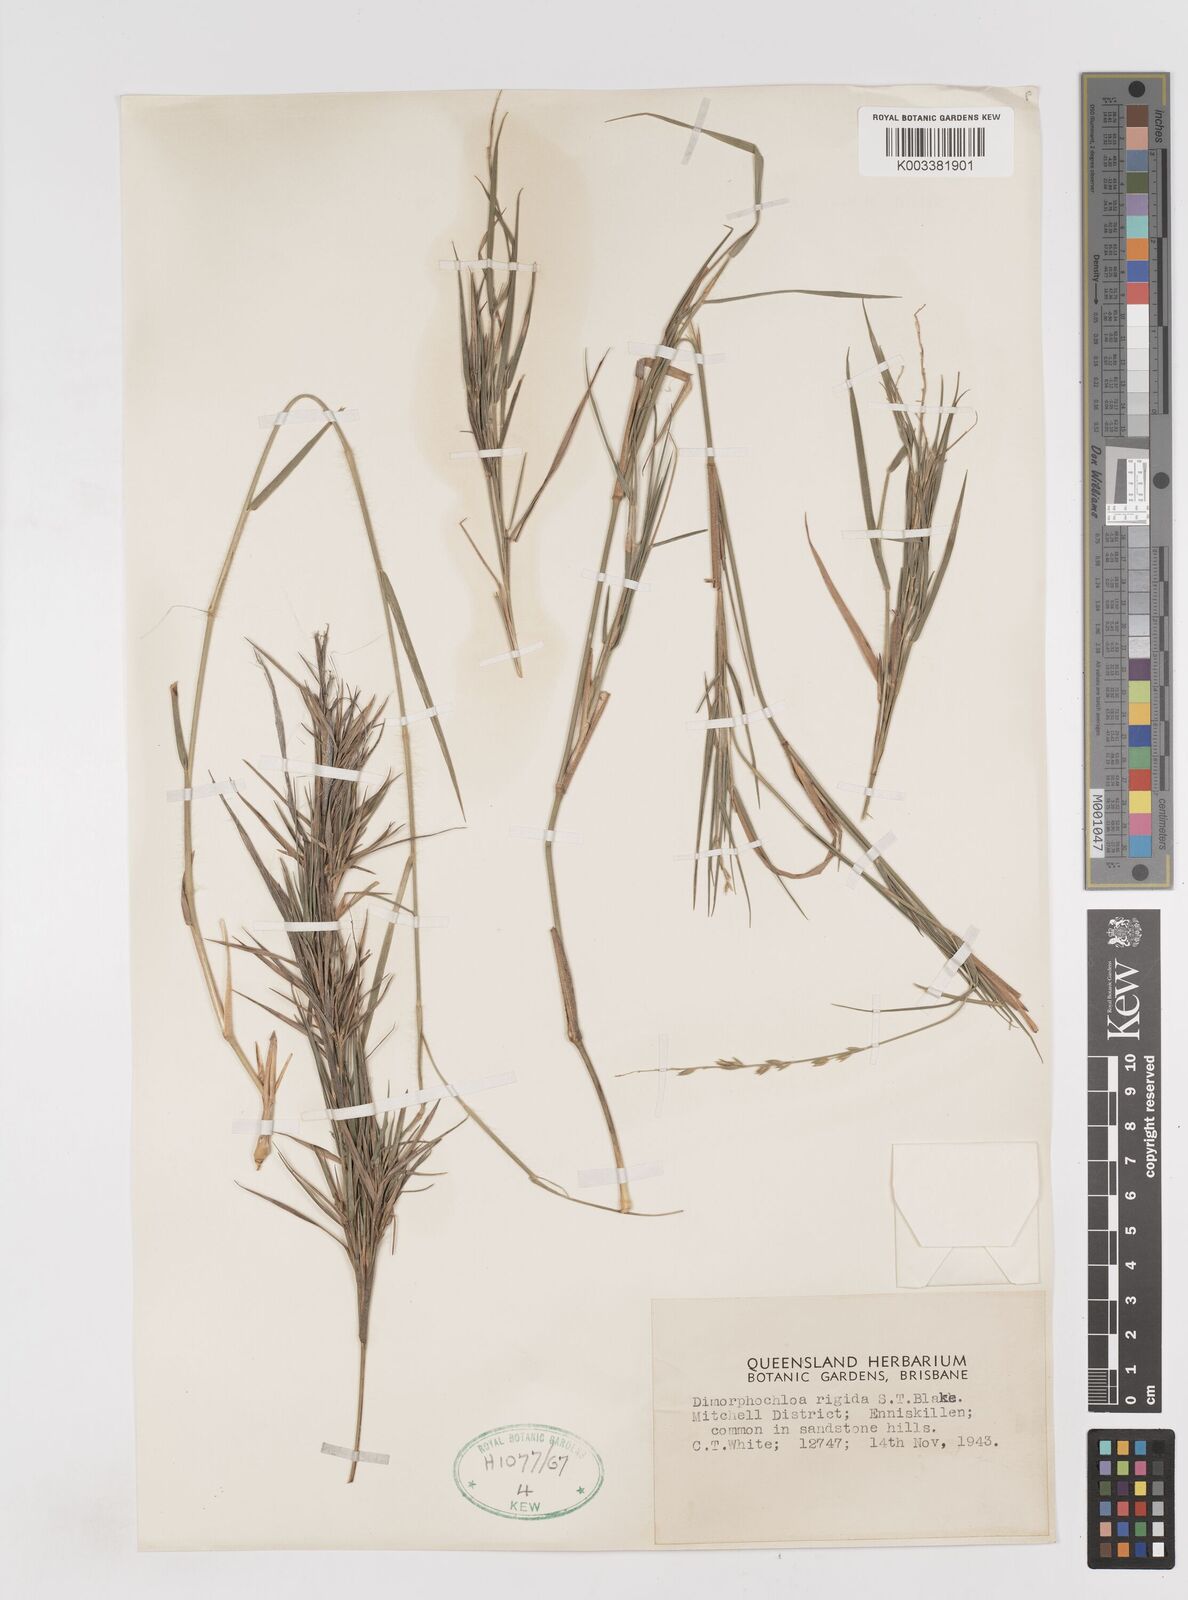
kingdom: Plantae
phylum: Tracheophyta
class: Liliopsida
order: Poales
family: Poaceae
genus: Dimorphochloa
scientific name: Dimorphochloa rigida
